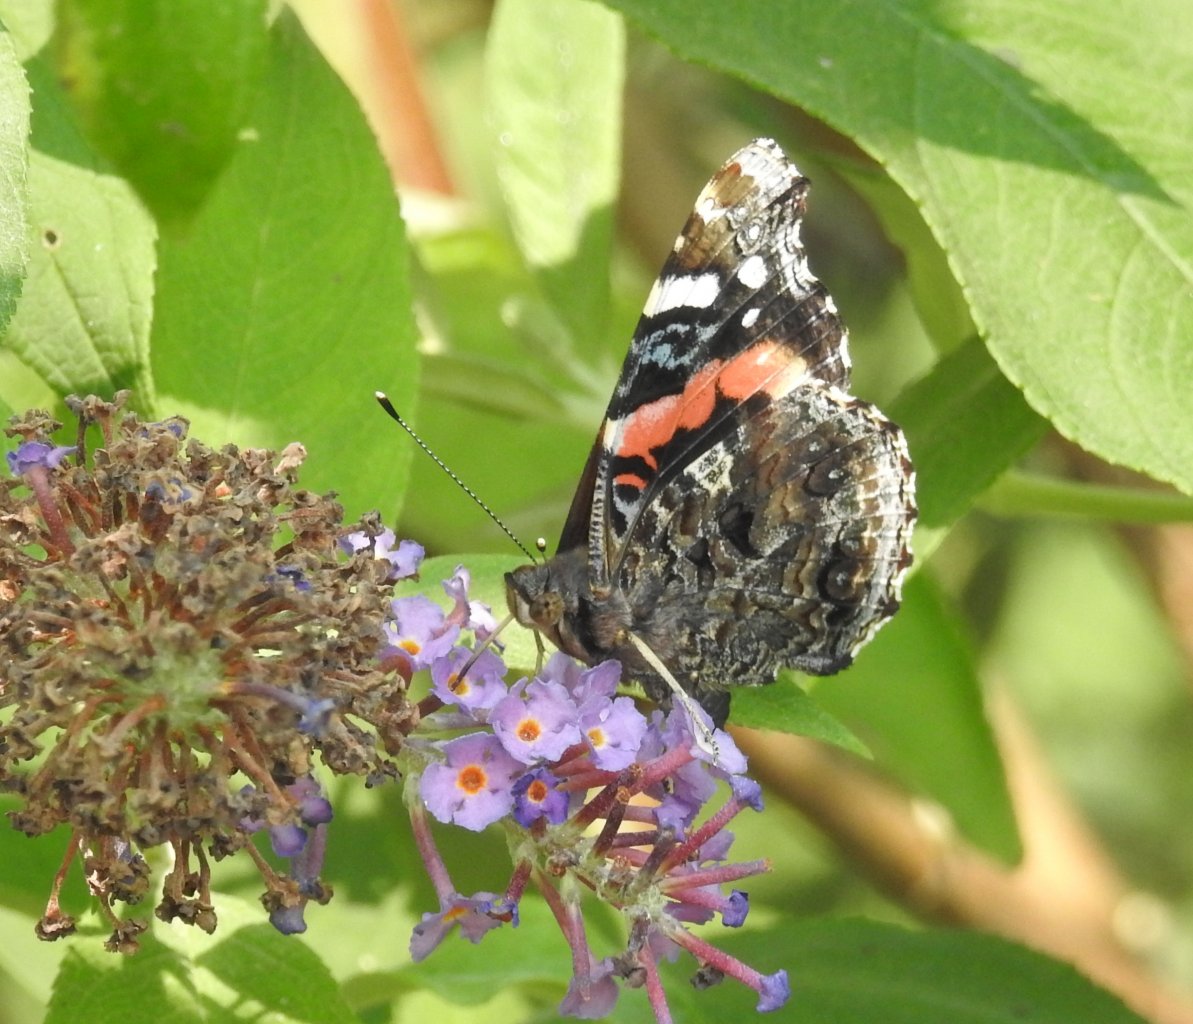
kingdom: Animalia
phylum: Arthropoda
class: Insecta
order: Lepidoptera
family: Nymphalidae
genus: Vanessa
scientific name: Vanessa atalanta
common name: Red Admiral
